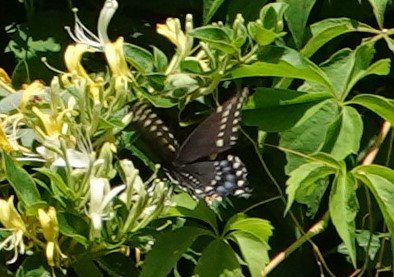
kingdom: Animalia
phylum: Arthropoda
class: Insecta
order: Lepidoptera
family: Papilionidae
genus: Papilio
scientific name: Papilio polyxenes
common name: Black Swallowtail
